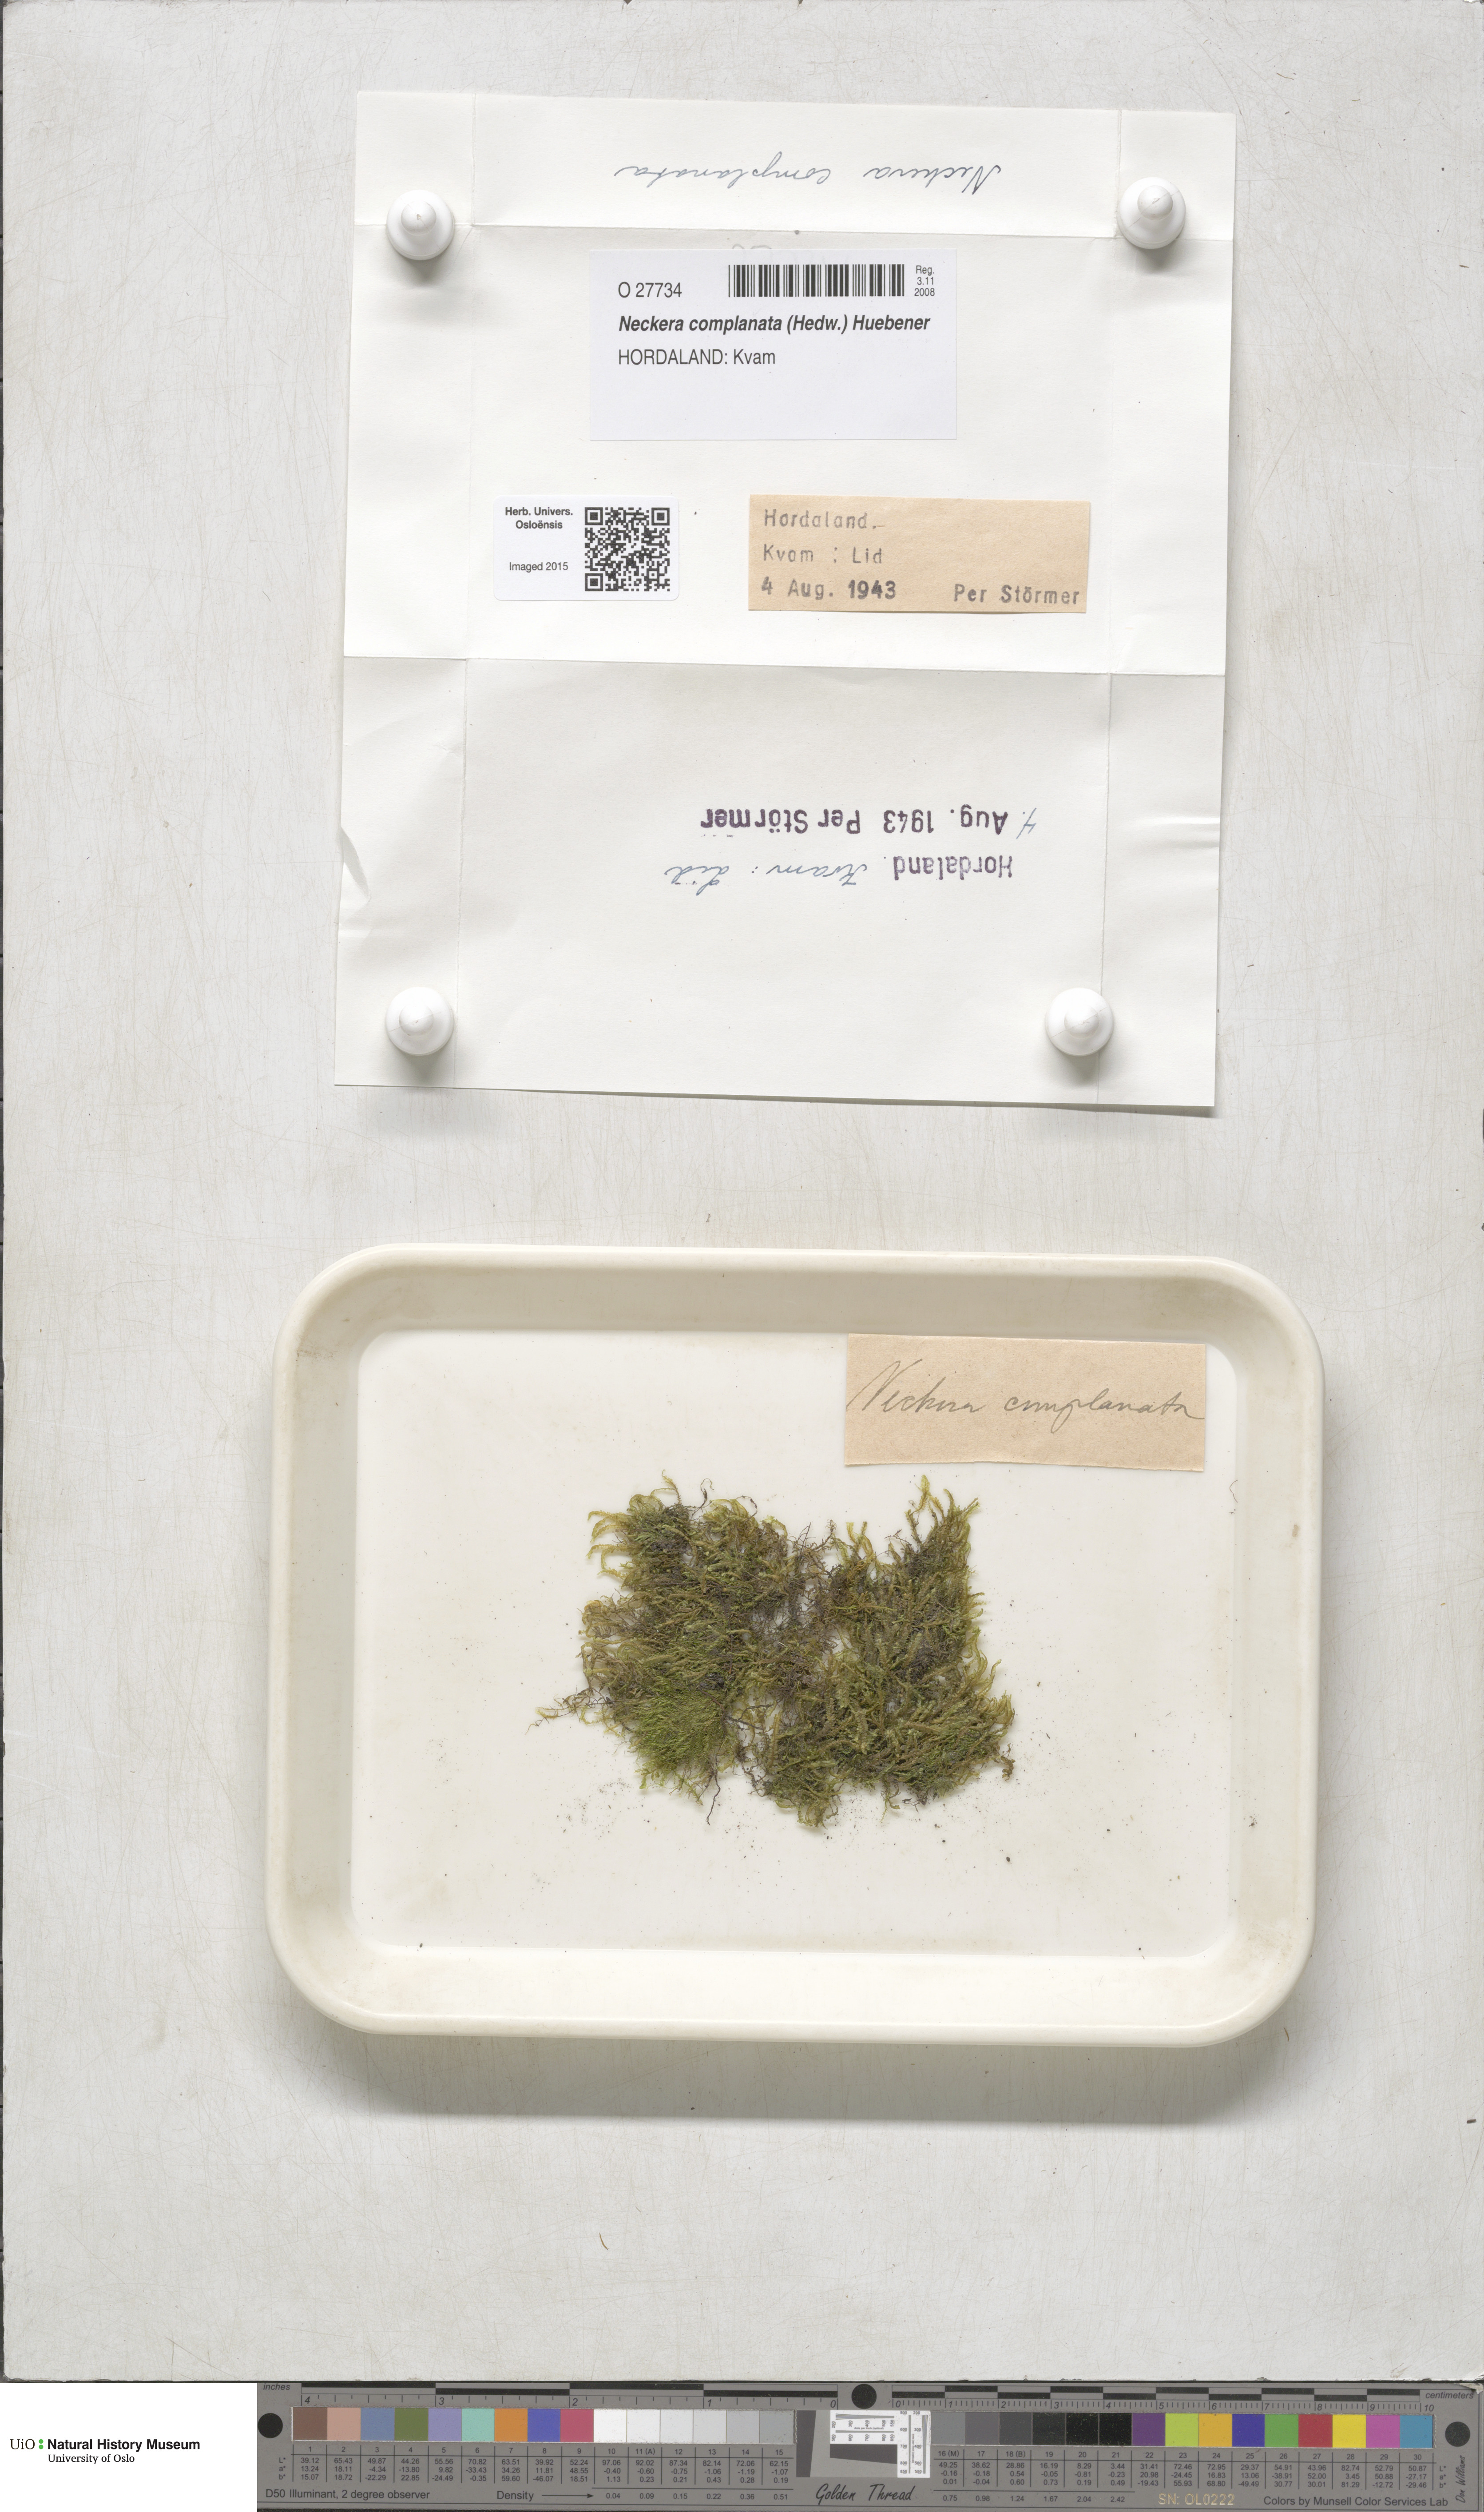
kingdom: Plantae
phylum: Bryophyta
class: Bryopsida
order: Hypnales
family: Neckeraceae
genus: Alleniella
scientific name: Alleniella complanata
